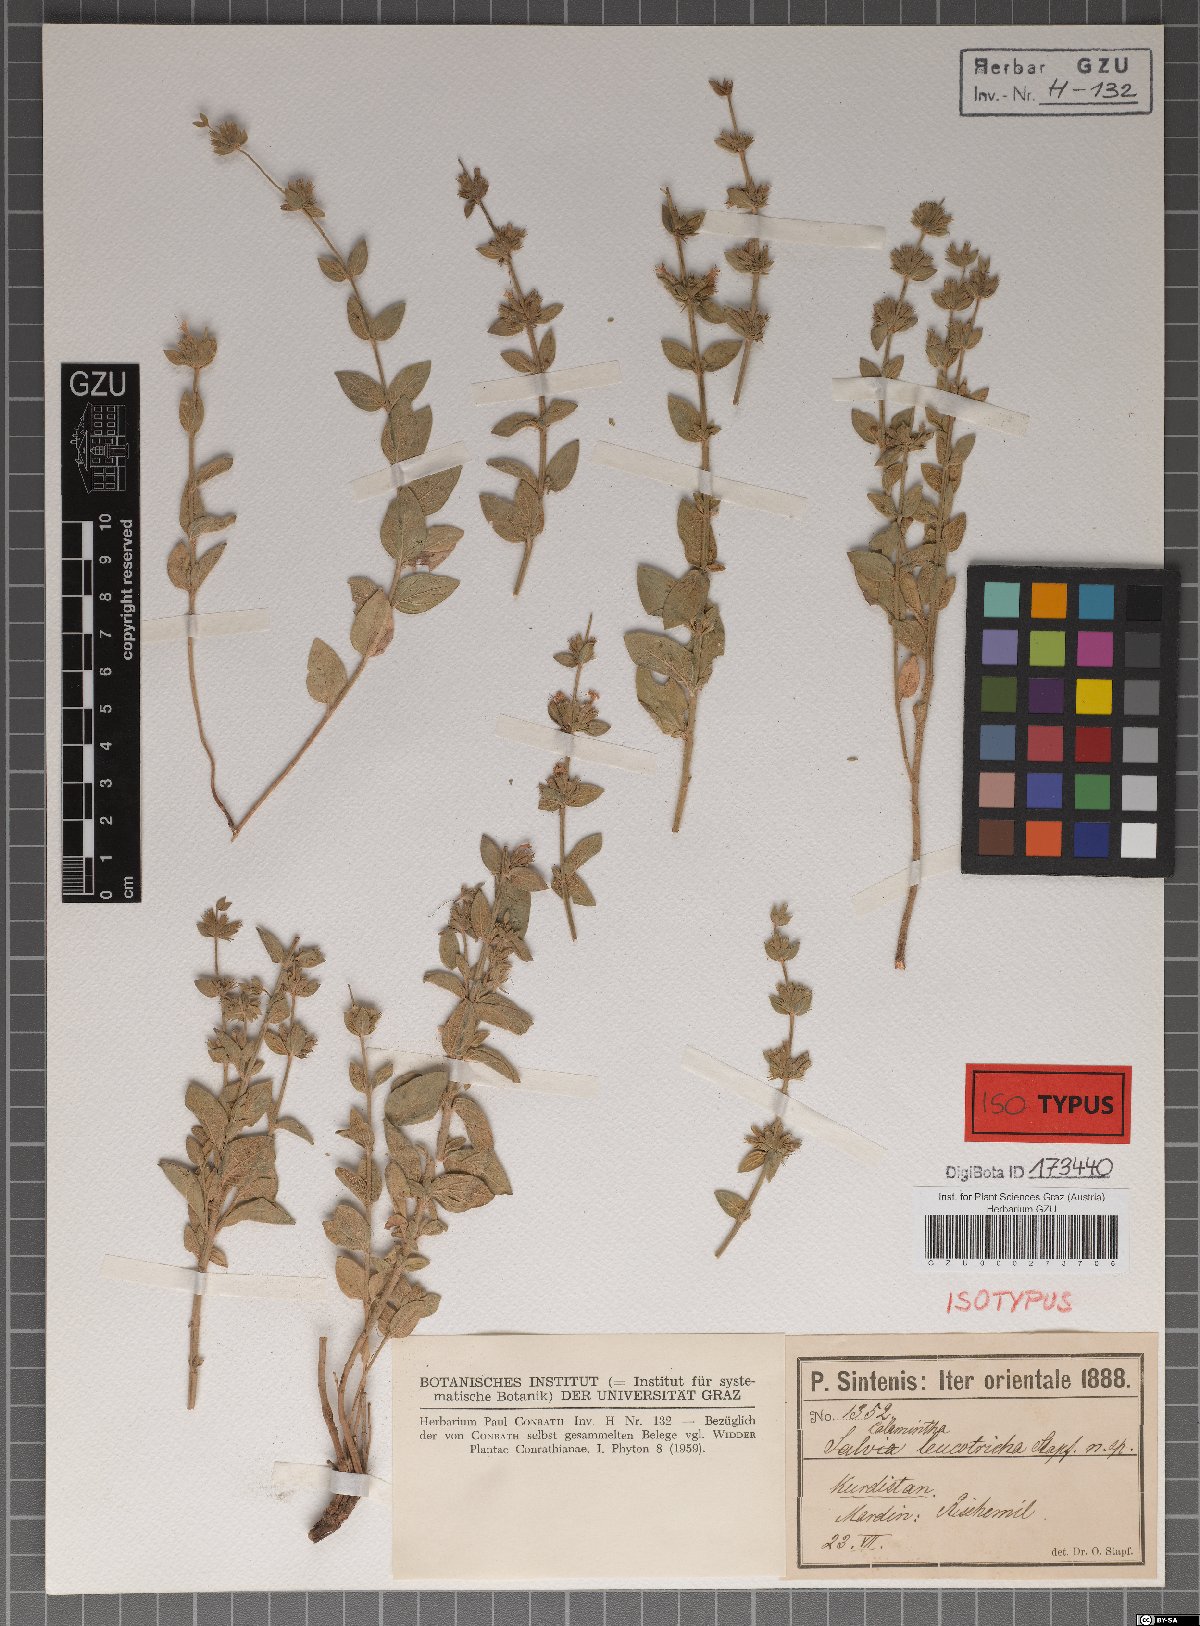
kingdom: Plantae
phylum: Tracheophyta
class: Magnoliopsida
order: Lamiales
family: Lamiaceae
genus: Cyclotrichium
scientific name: Cyclotrichium leucotrichum
